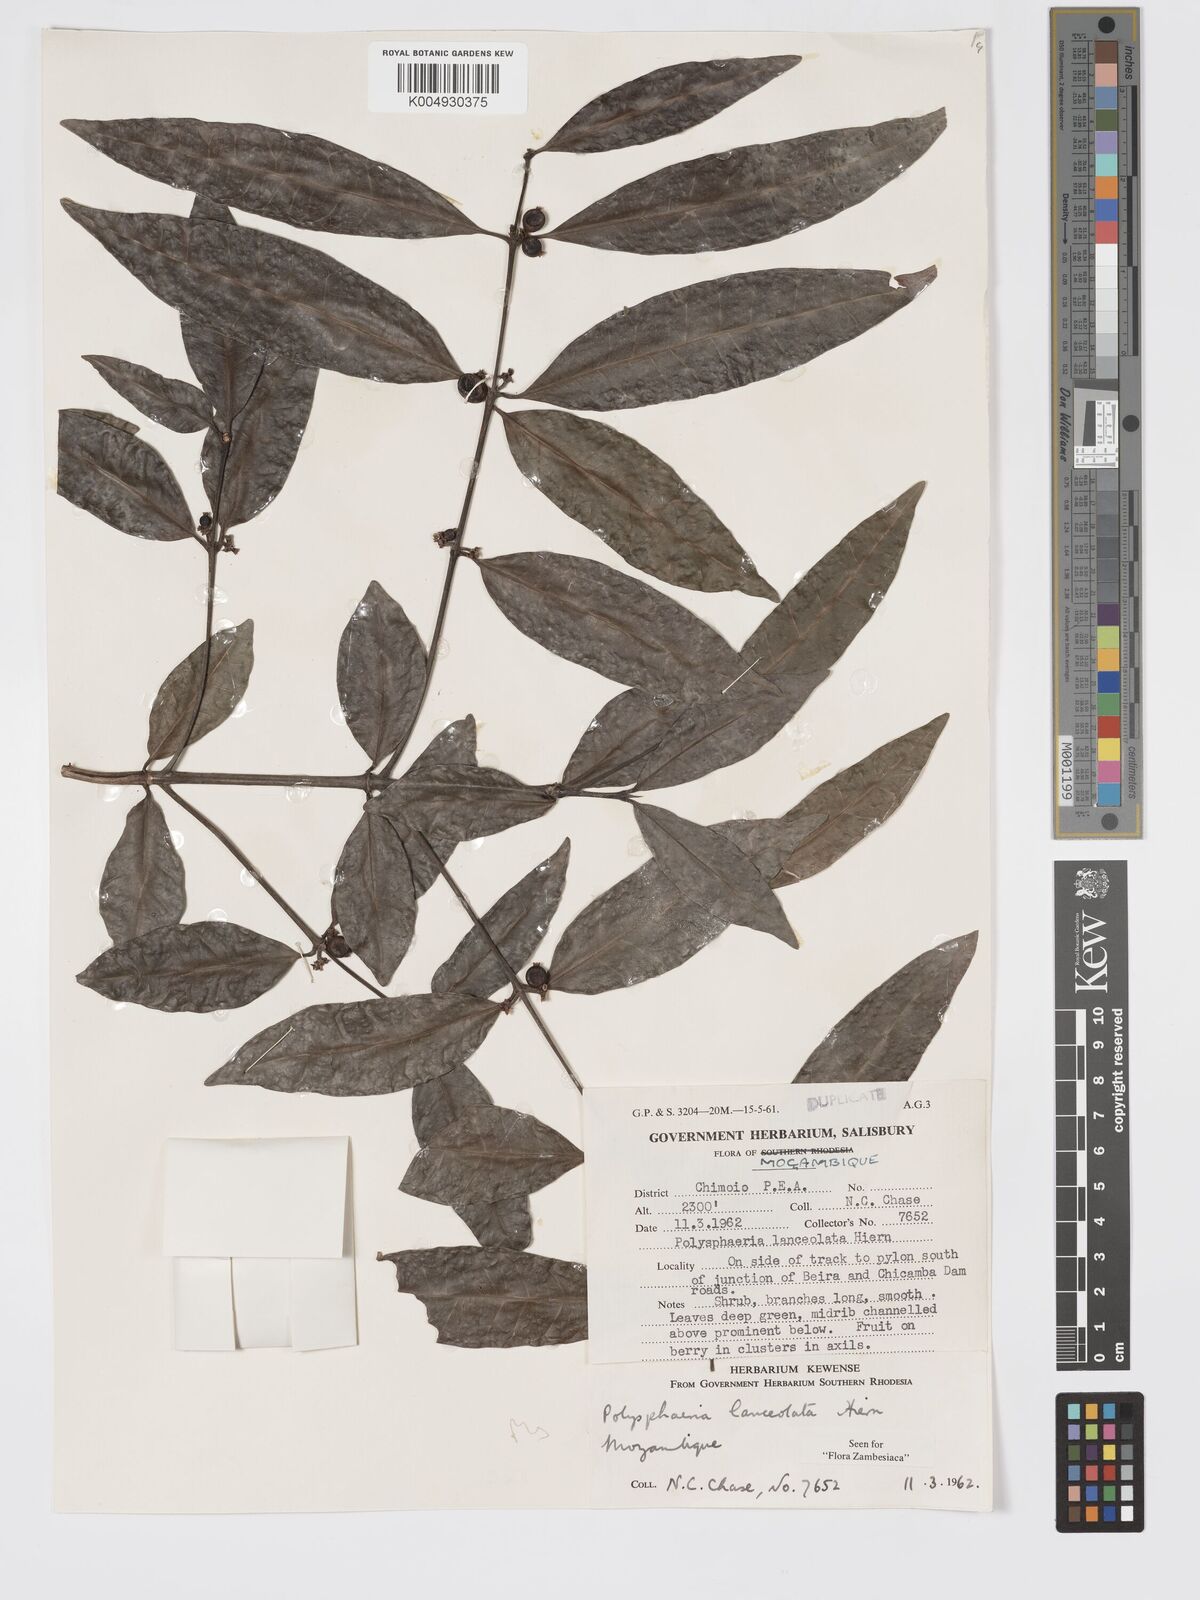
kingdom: Plantae
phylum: Tracheophyta
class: Magnoliopsida
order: Gentianales
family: Rubiaceae
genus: Polysphaeria
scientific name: Polysphaeria lanceolata
